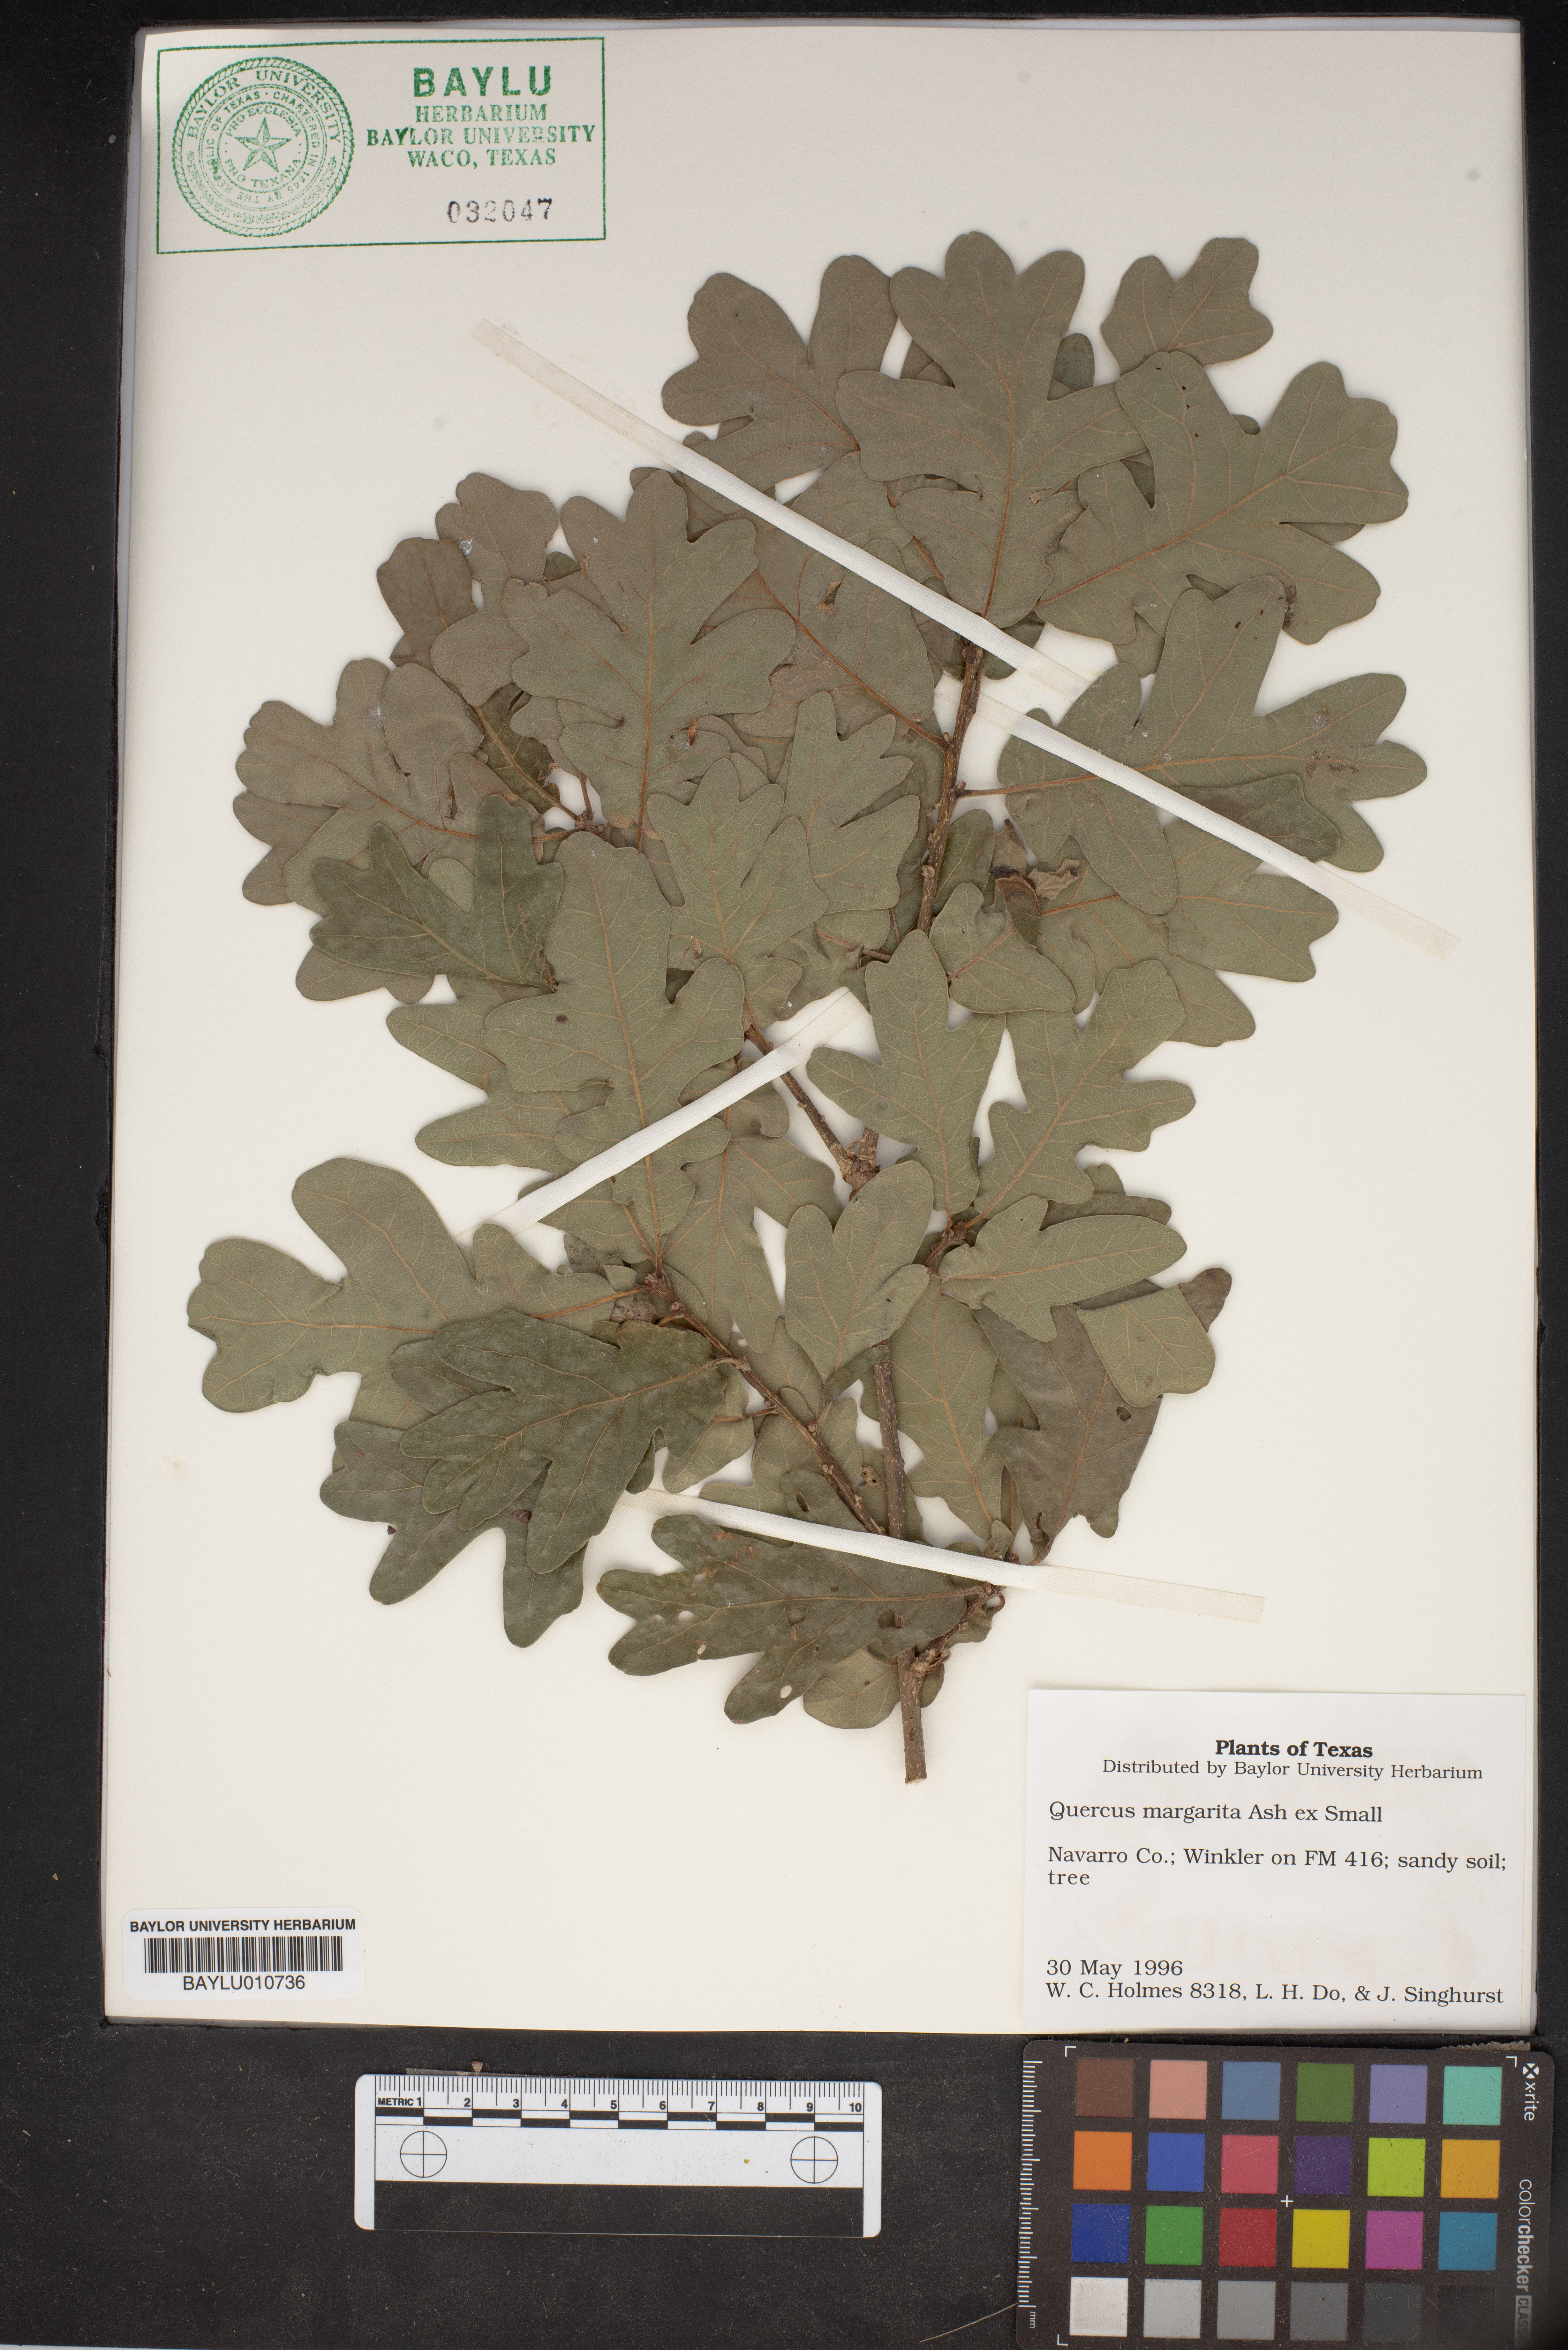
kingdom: Plantae
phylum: Tracheophyta
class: Magnoliopsida
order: Fagales
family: Fagaceae
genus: Quercus
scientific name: Quercus margaretta
